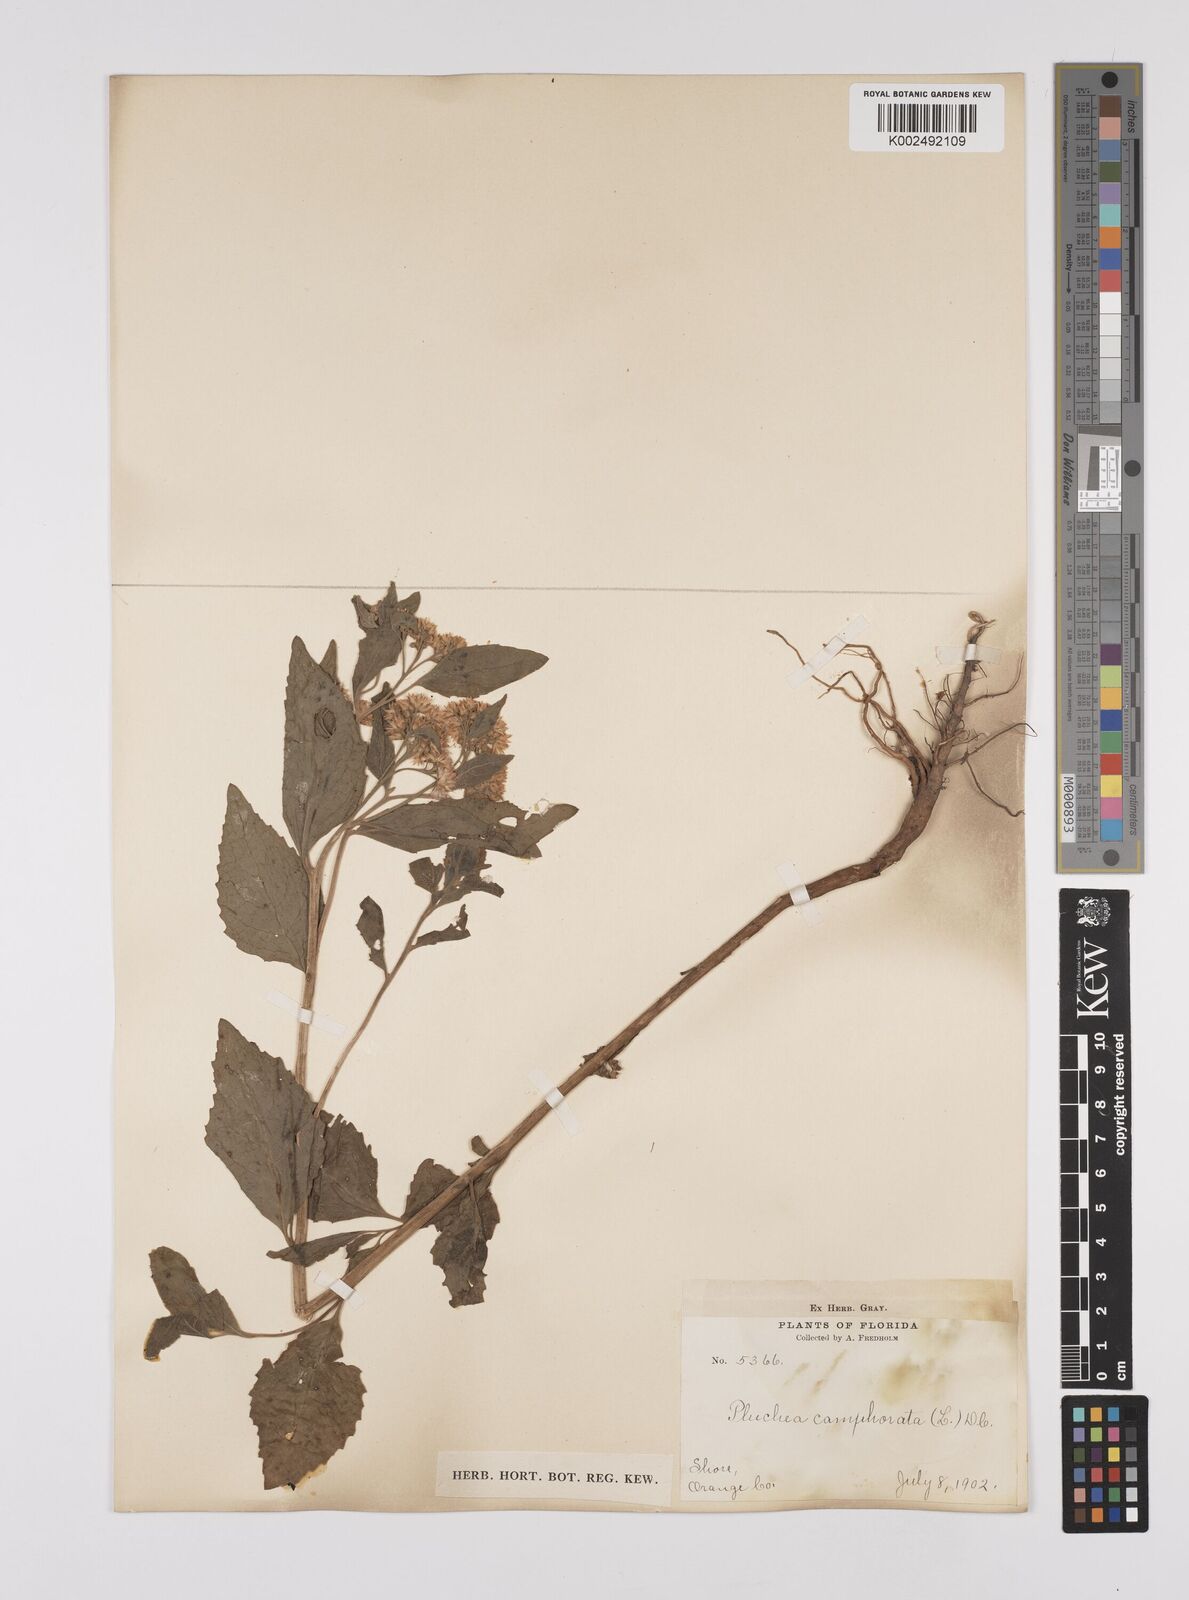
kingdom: Plantae
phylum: Tracheophyta
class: Magnoliopsida
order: Asterales
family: Asteraceae
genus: Pluchea
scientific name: Pluchea
